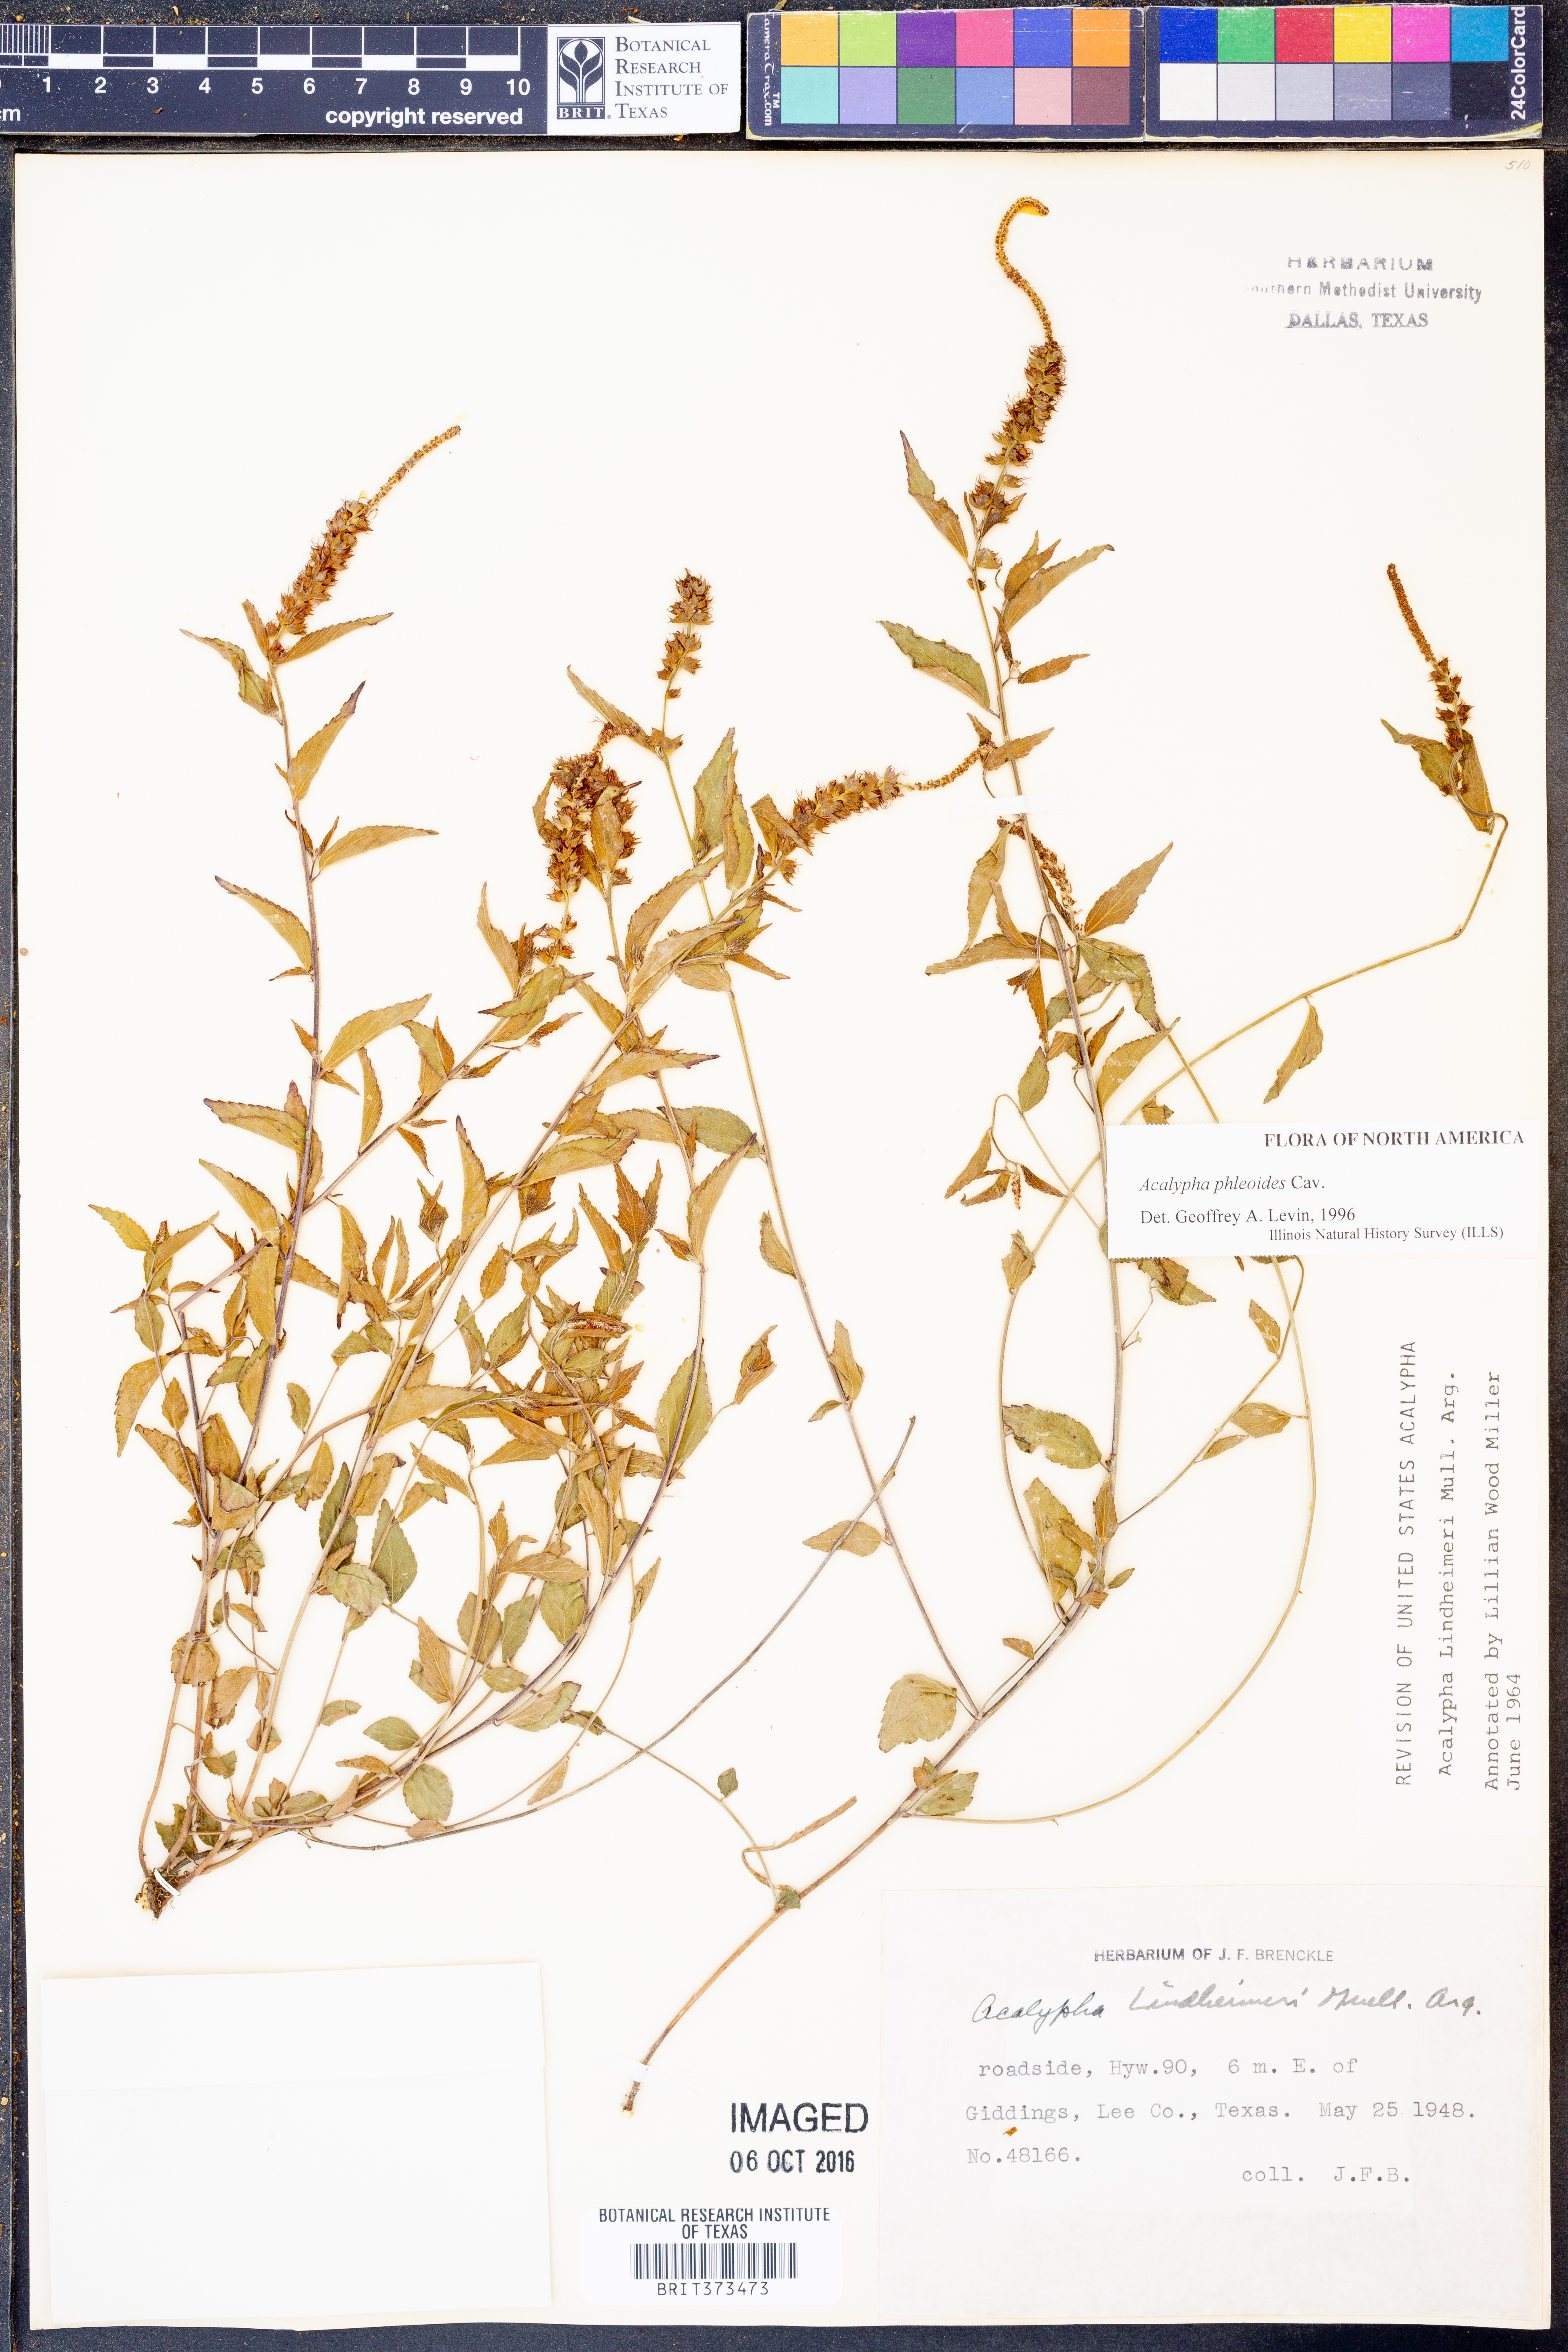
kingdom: Plantae
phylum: Tracheophyta
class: Magnoliopsida
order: Malpighiales
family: Euphorbiaceae
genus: Acalypha
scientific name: Acalypha phleoides
